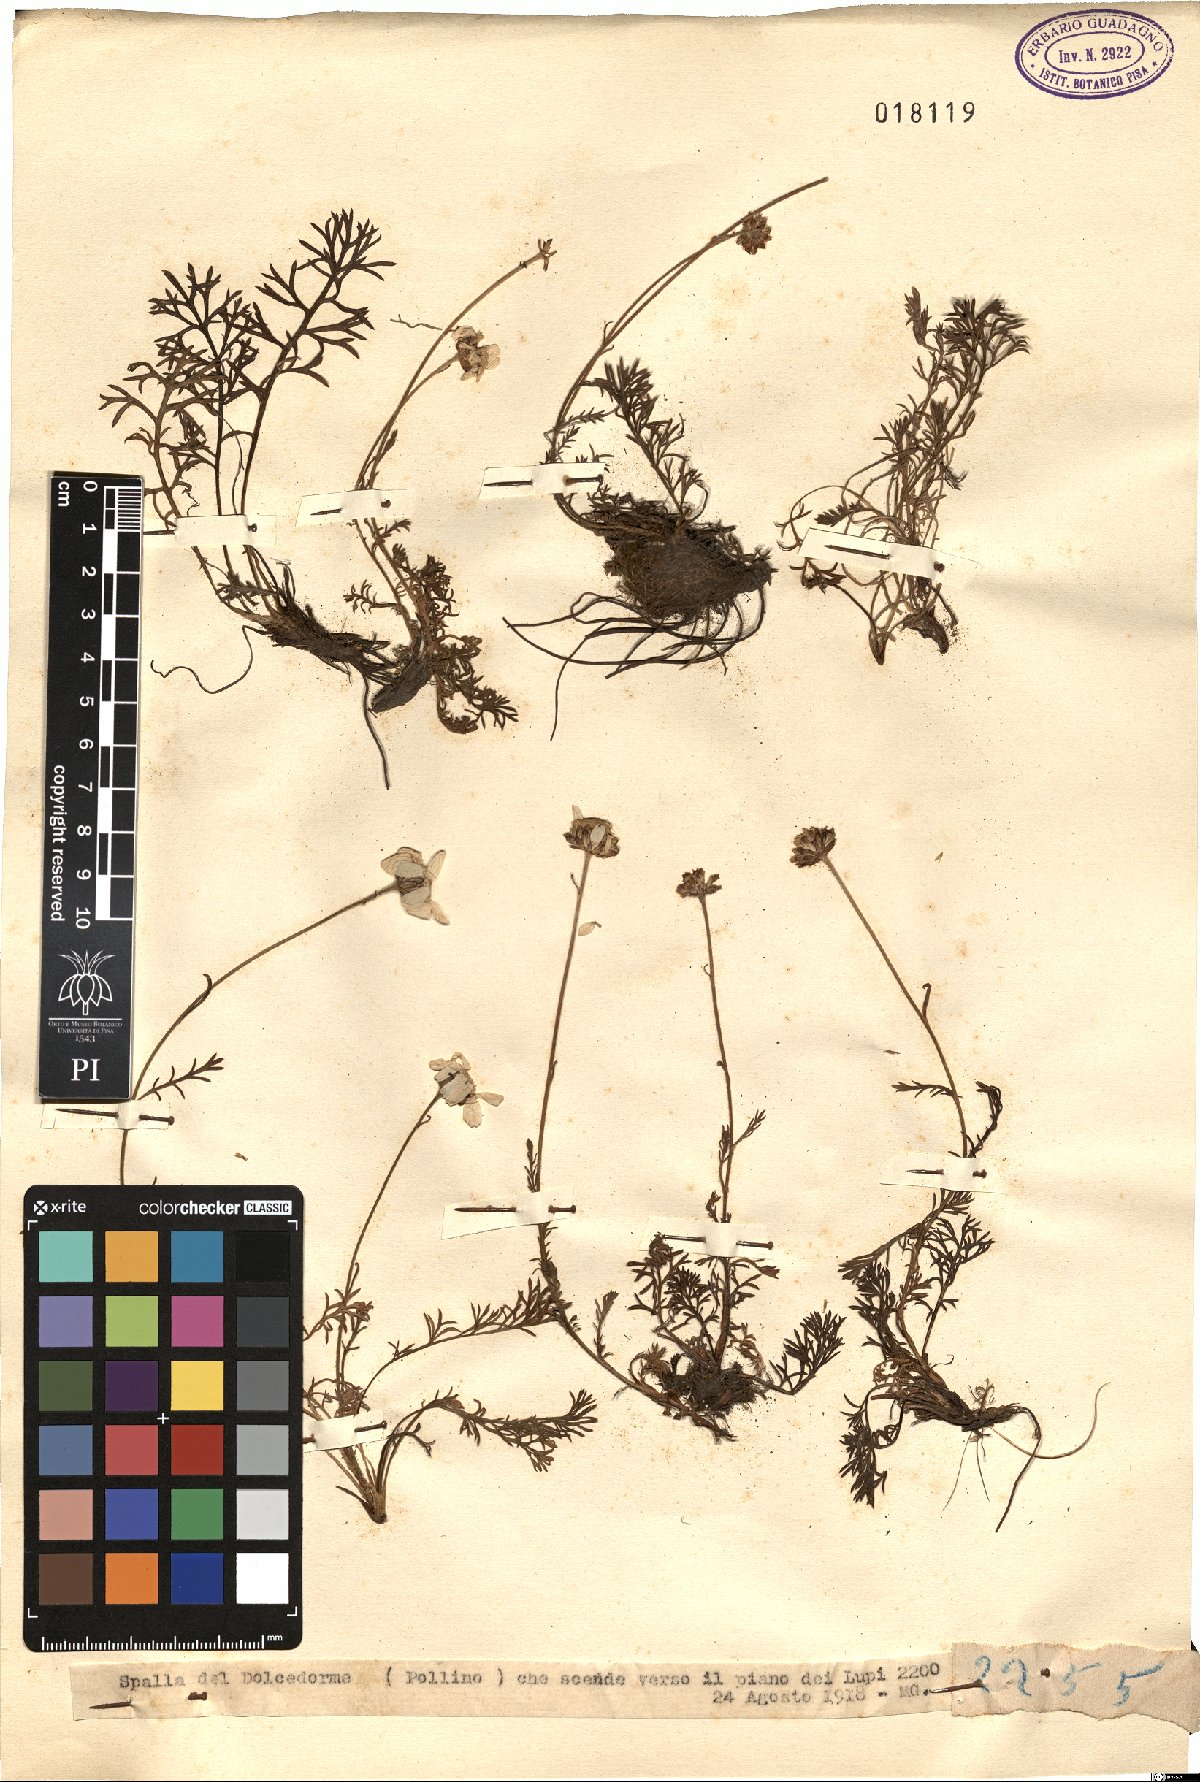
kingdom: Plantae
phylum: Tracheophyta
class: Magnoliopsida
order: Asterales
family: Asteraceae
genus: Achillea
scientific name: Achillea
